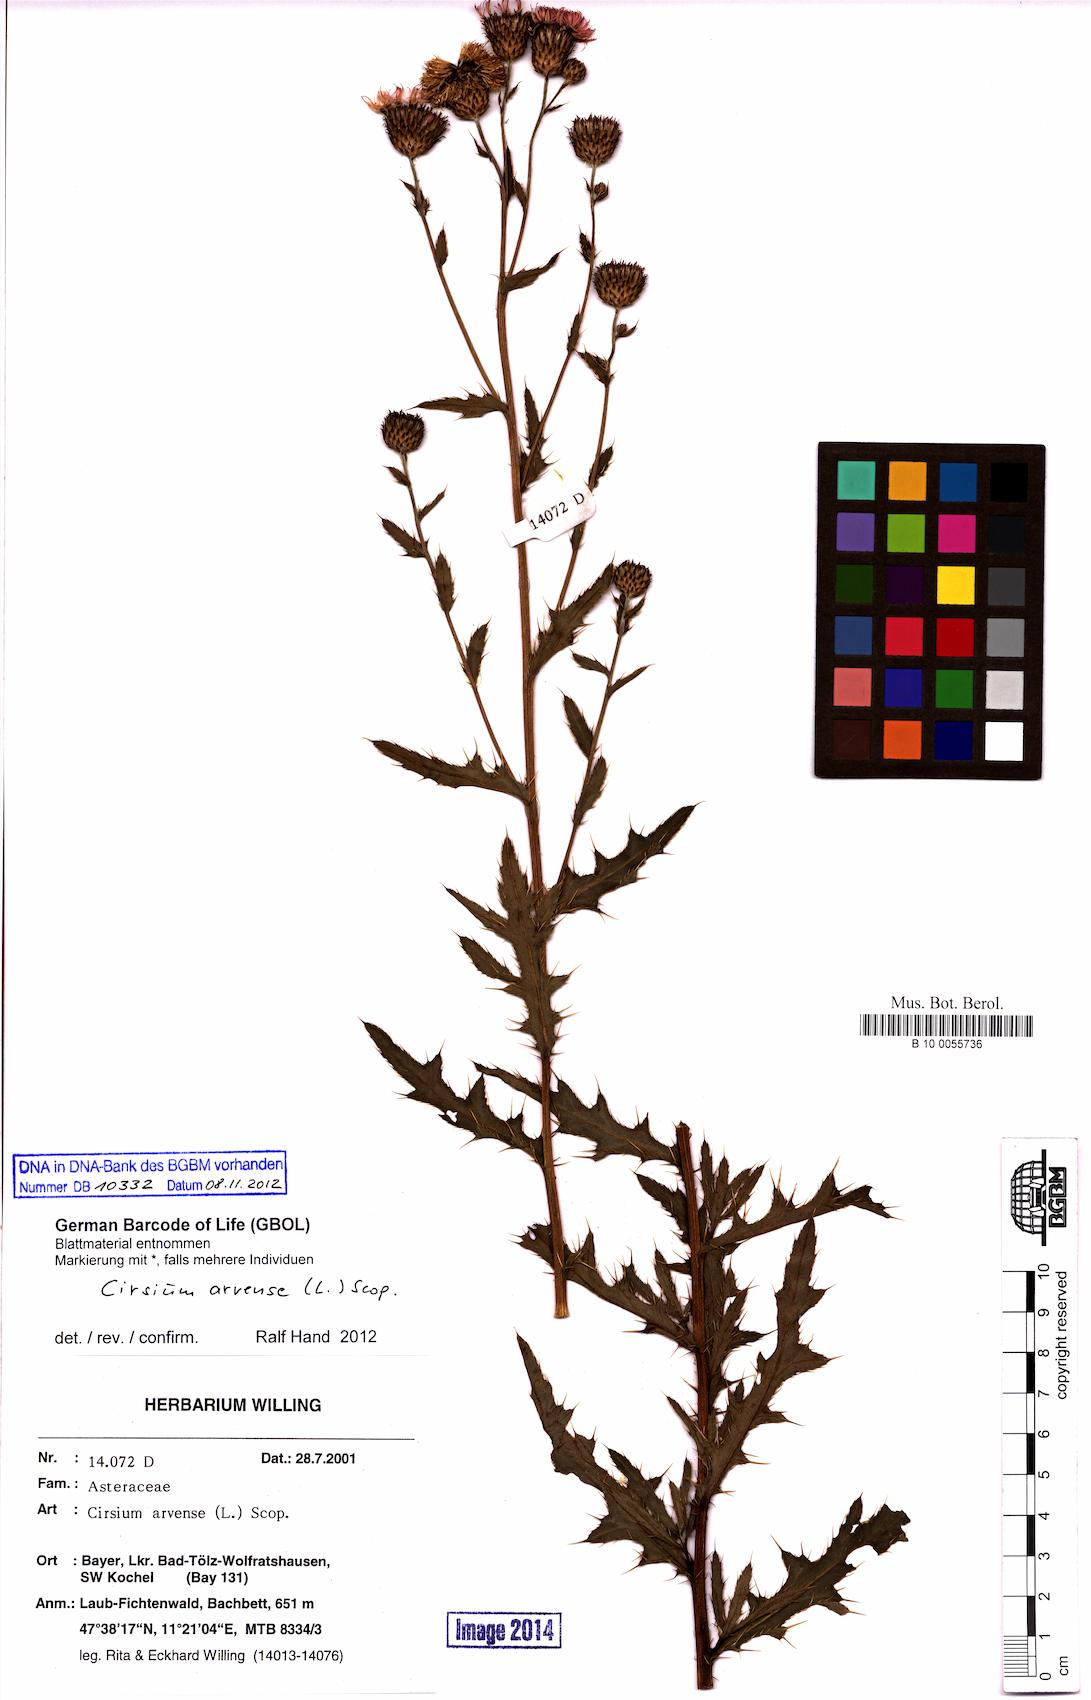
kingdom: Plantae
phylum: Tracheophyta
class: Magnoliopsida
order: Asterales
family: Asteraceae
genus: Cirsium
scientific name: Cirsium arvense
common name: Creeping thistle
